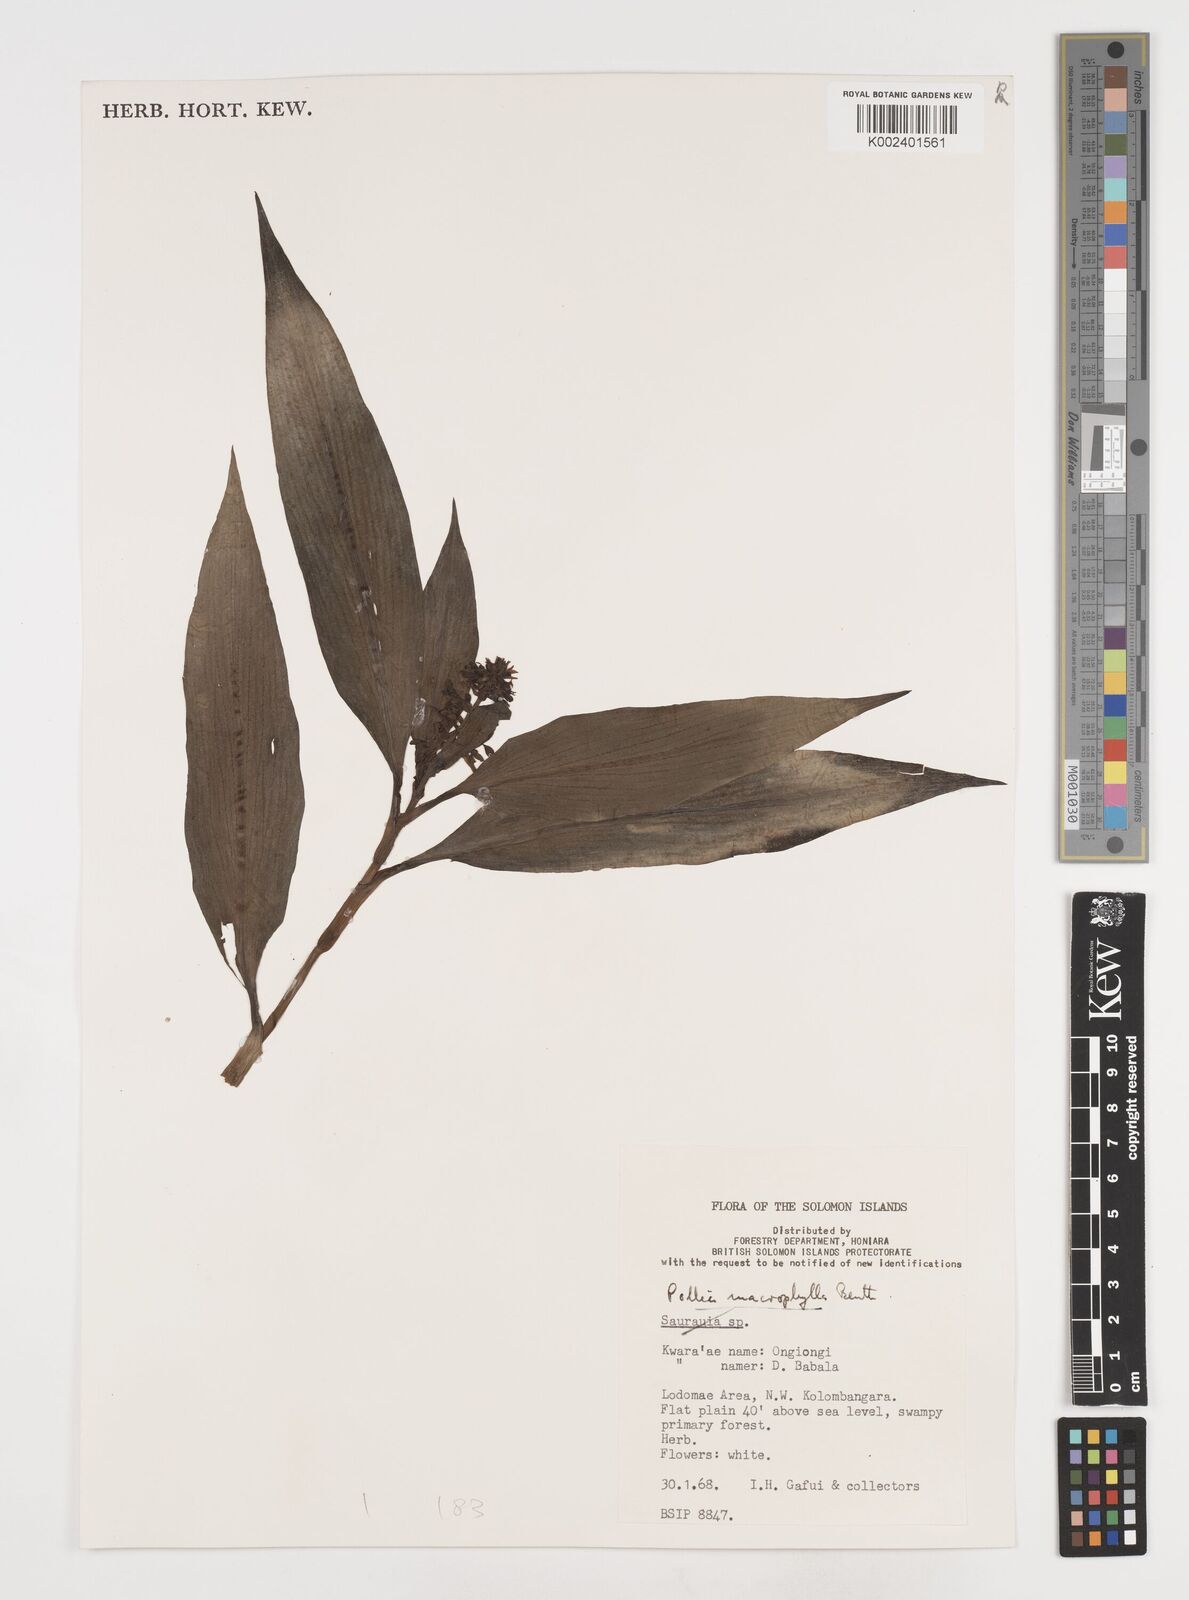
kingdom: Plantae
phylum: Tracheophyta
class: Liliopsida
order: Commelinales
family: Commelinaceae
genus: Pollia
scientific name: Pollia macrophylla
